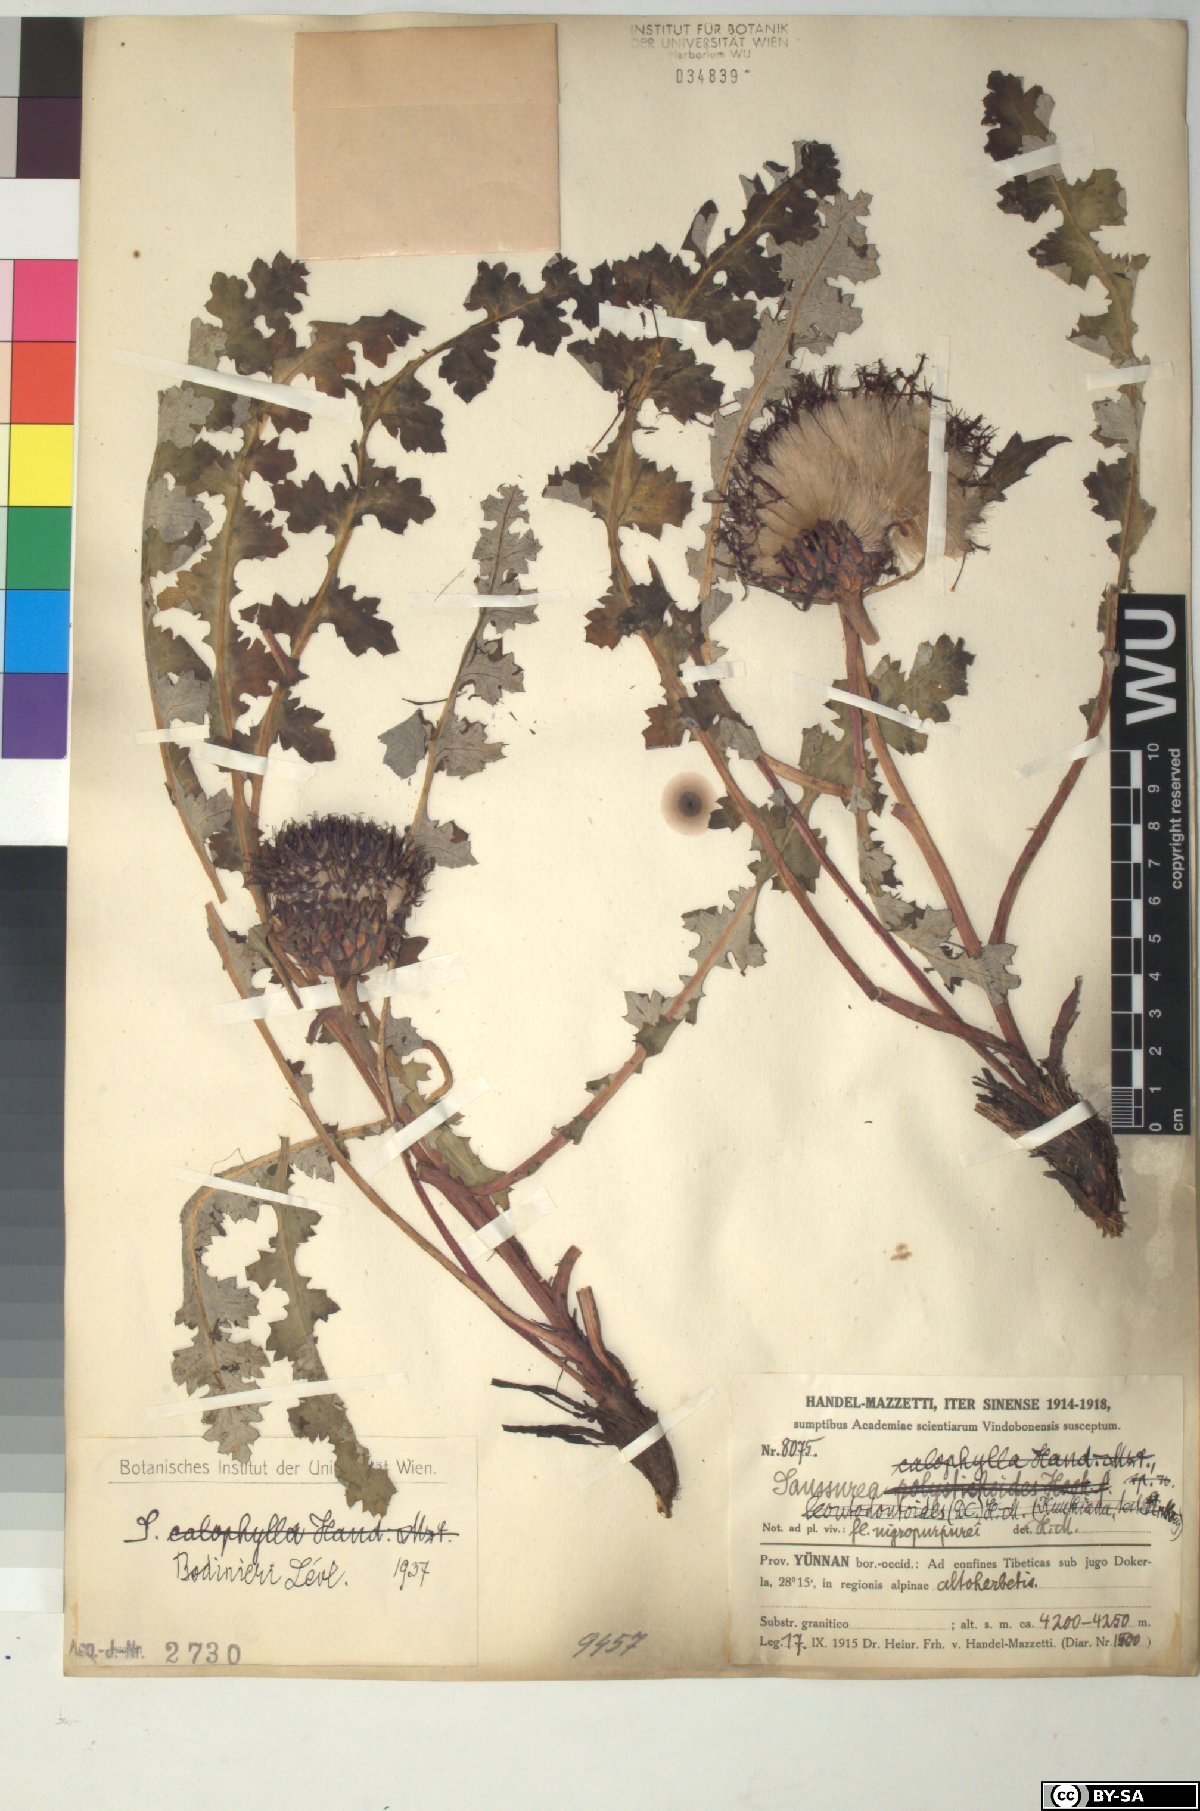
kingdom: Plantae
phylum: Tracheophyta
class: Magnoliopsida
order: Asterales
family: Asteraceae
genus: Saussurea
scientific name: Saussurea pachyneura
